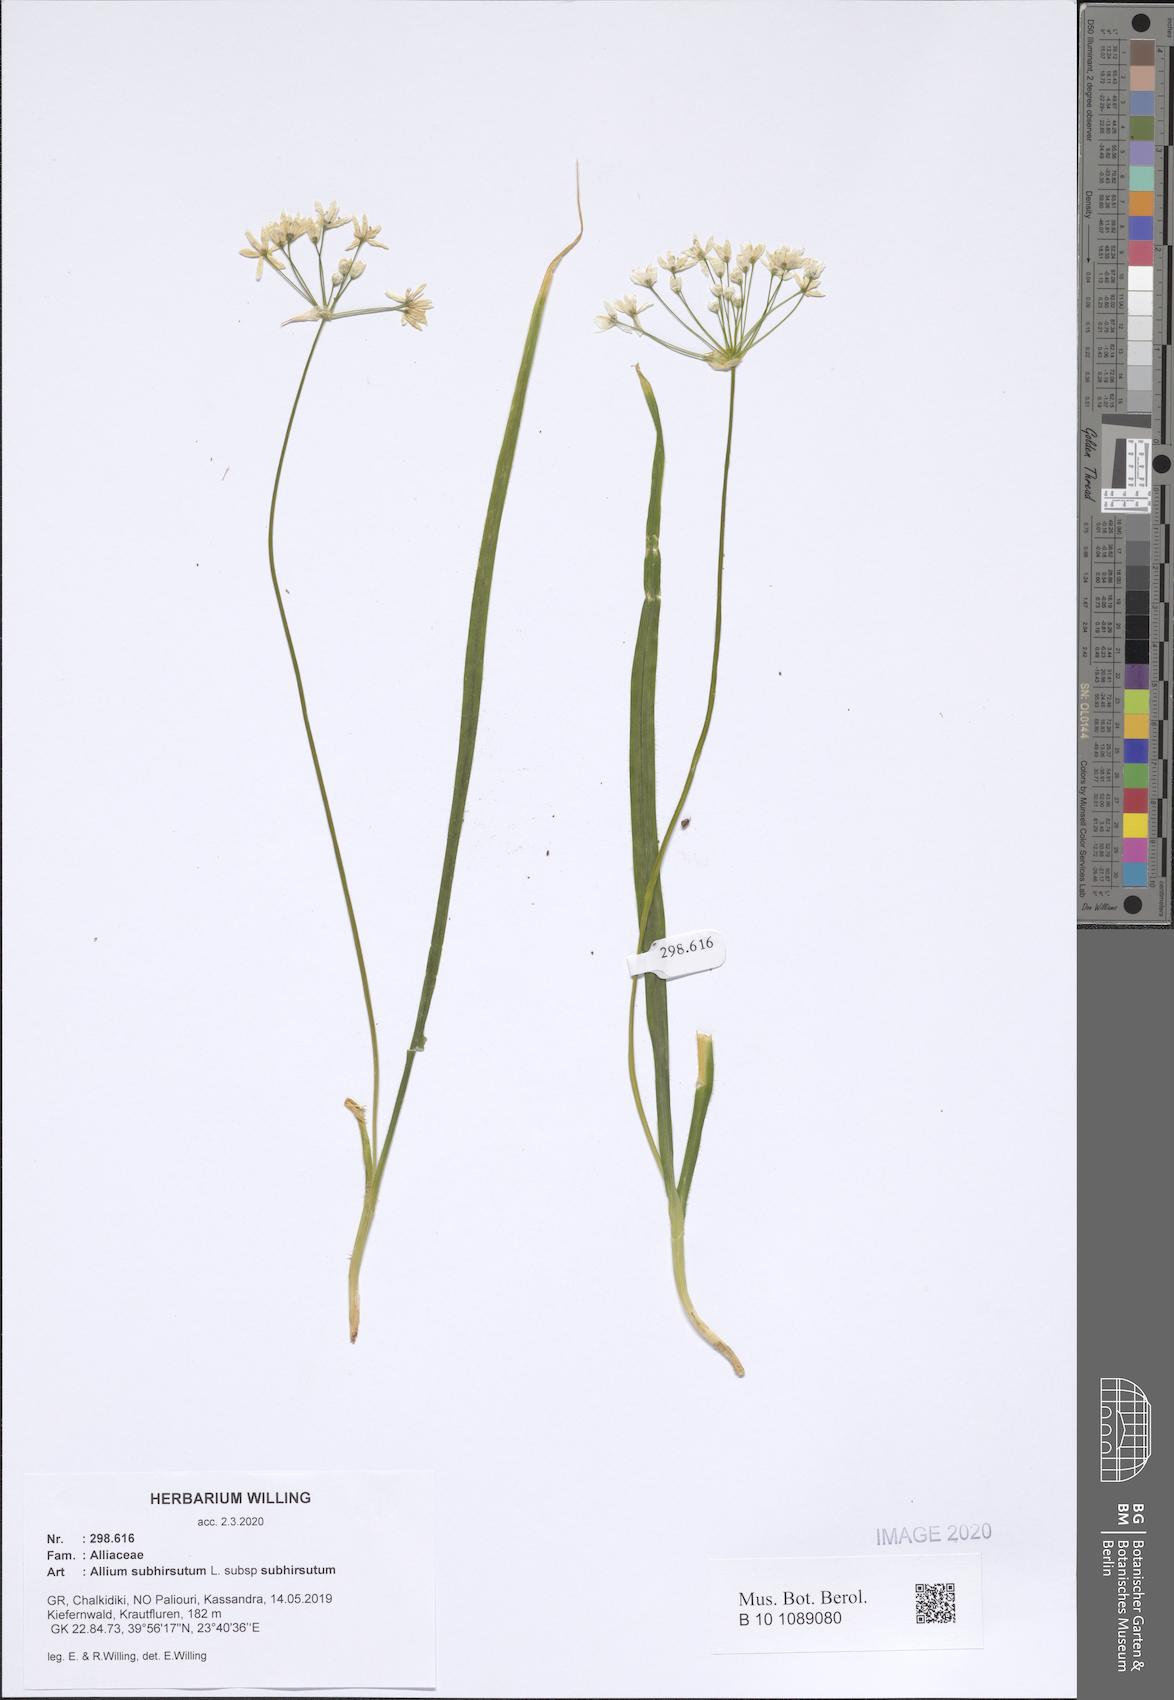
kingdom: Plantae
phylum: Tracheophyta
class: Liliopsida
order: Asparagales
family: Amaryllidaceae
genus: Allium
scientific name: Allium subhirsutum
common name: Hairy garlic
